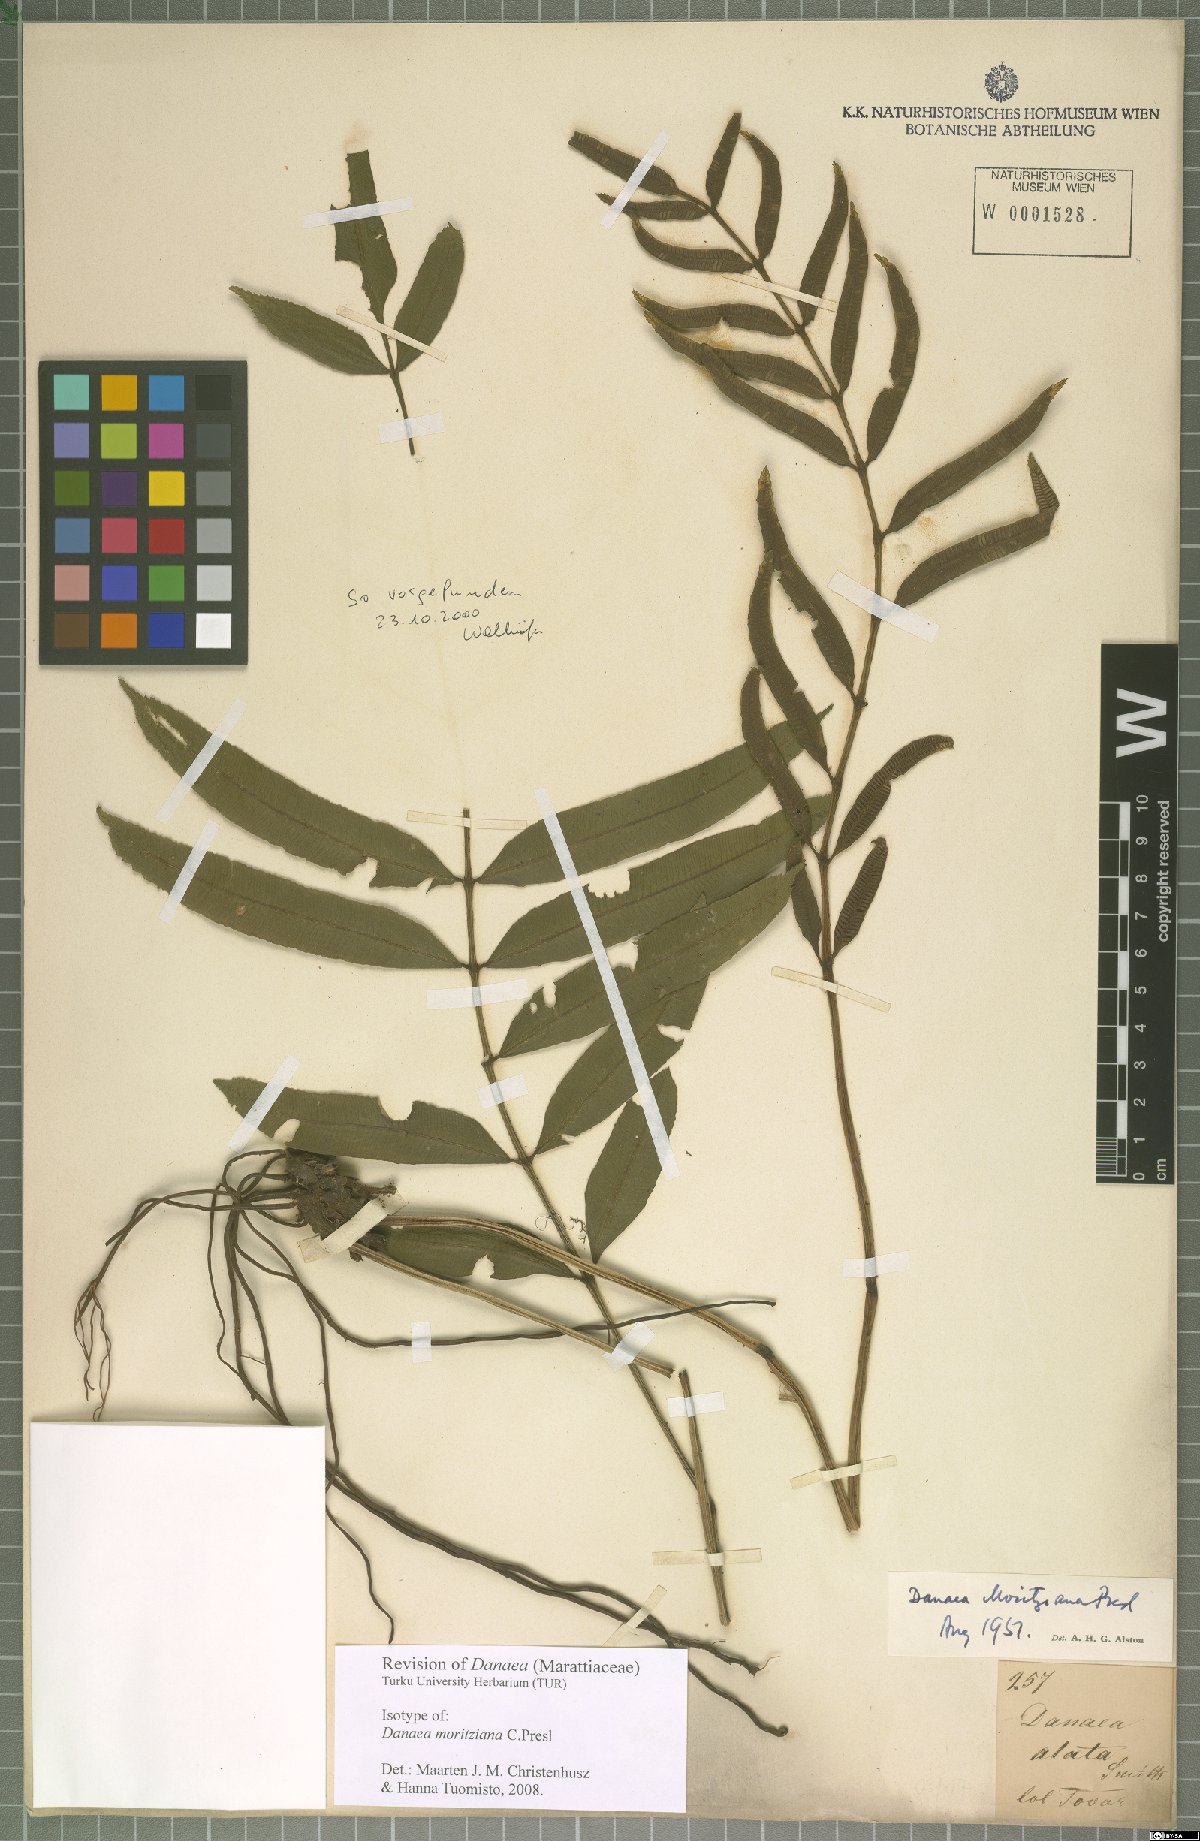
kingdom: Plantae
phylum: Tracheophyta
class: Polypodiopsida
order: Marattiales
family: Marattiaceae
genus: Danaea
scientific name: Danaea moritziana
